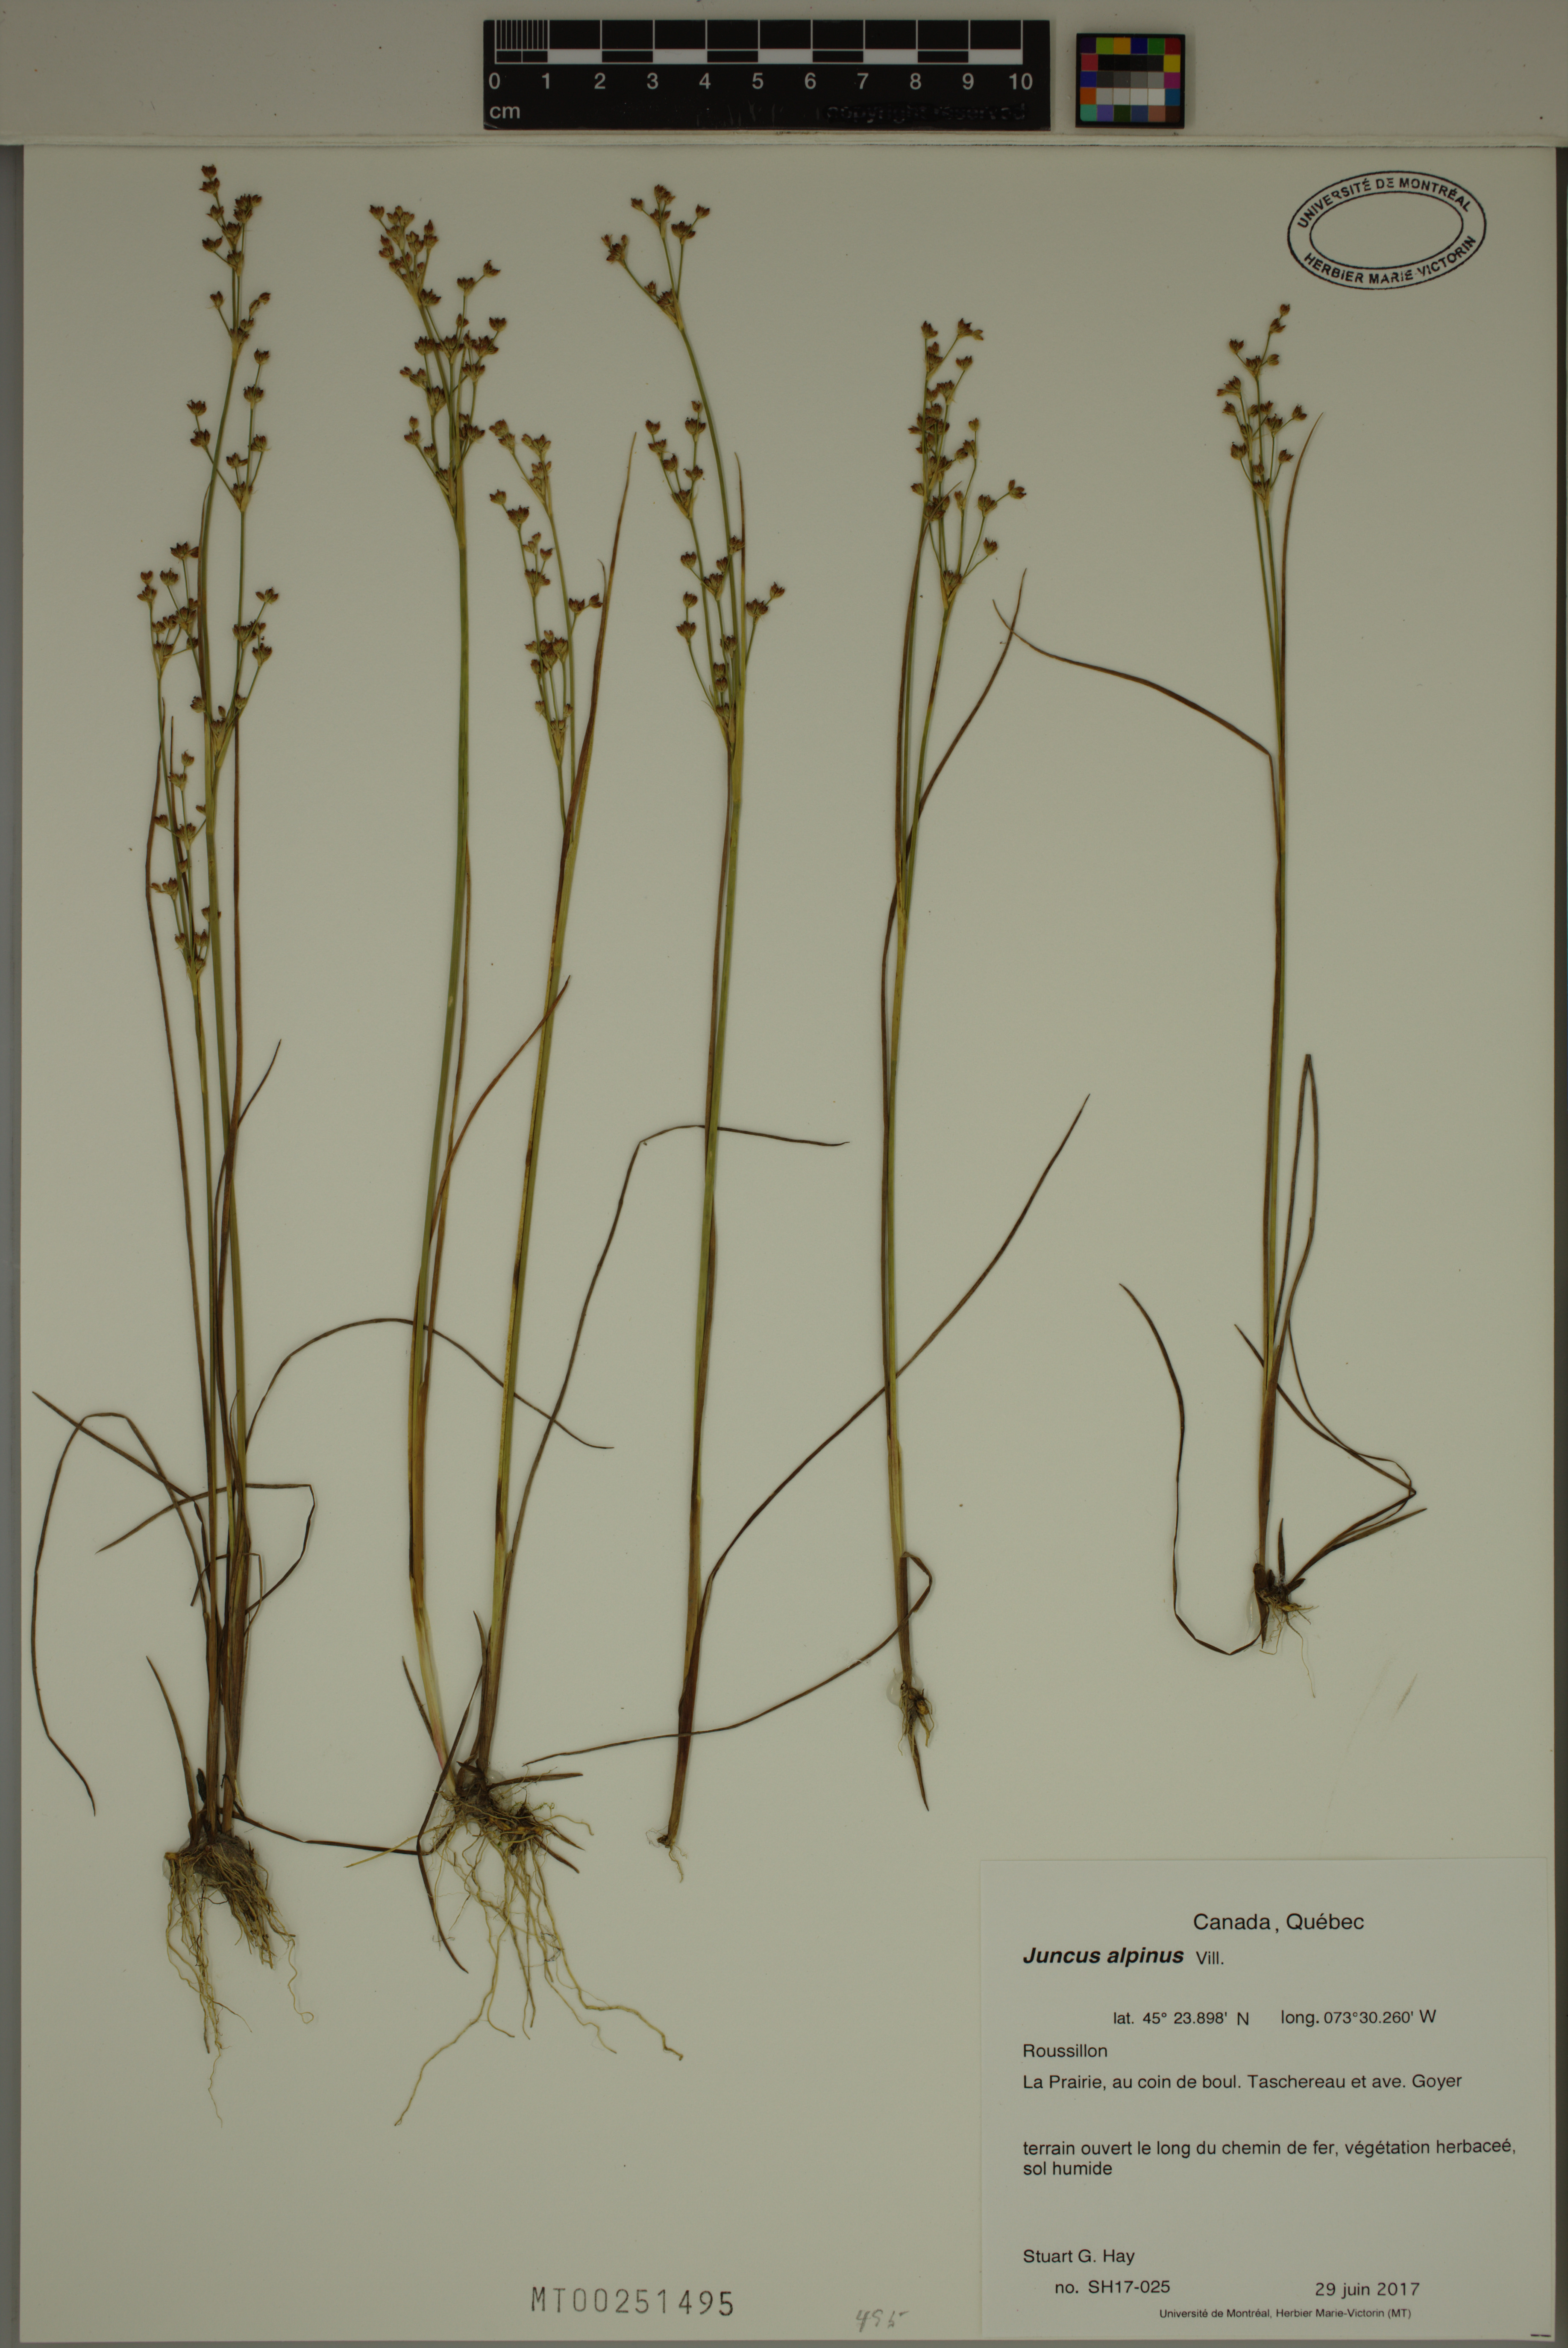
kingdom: Plantae
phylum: Tracheophyta
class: Liliopsida
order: Poales
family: Juncaceae
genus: Juncus
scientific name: Juncus alpinoarticulatus
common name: Alpine rush
